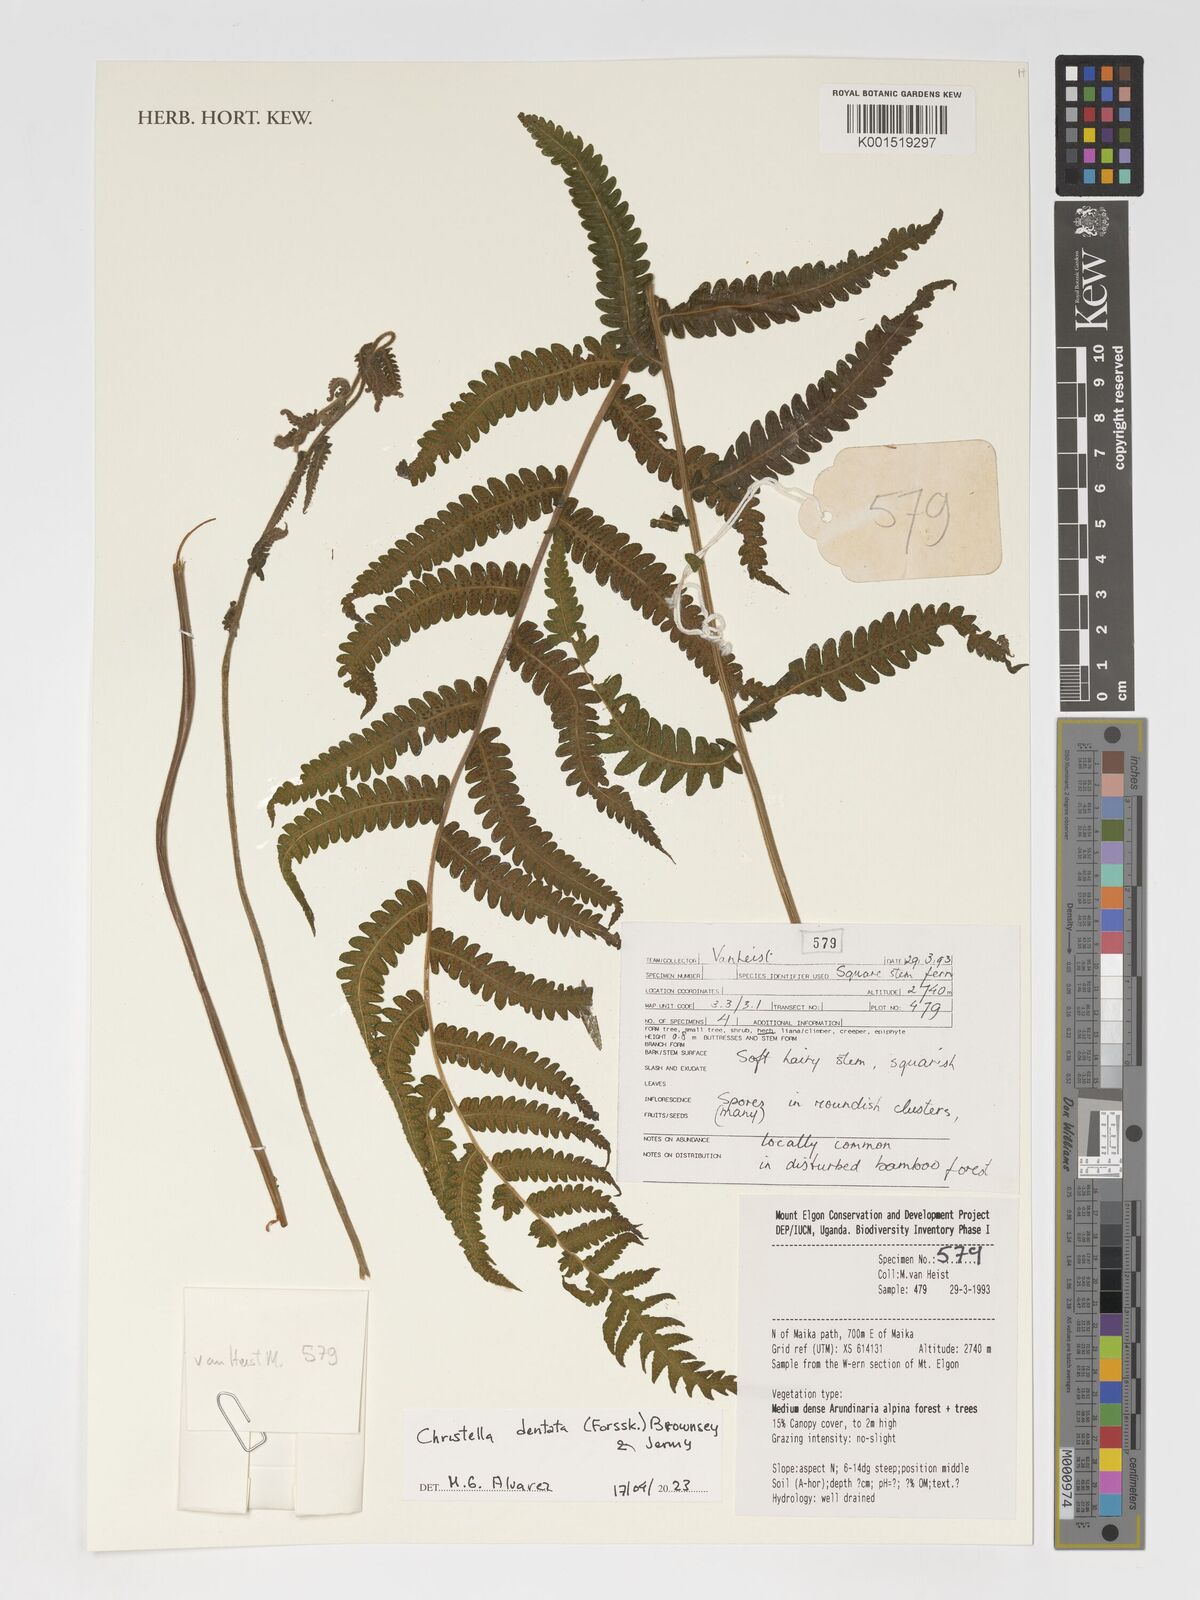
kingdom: Plantae
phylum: Tracheophyta
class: Polypodiopsida
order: Polypodiales
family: Thelypteridaceae
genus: Christella
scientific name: Christella dentata
